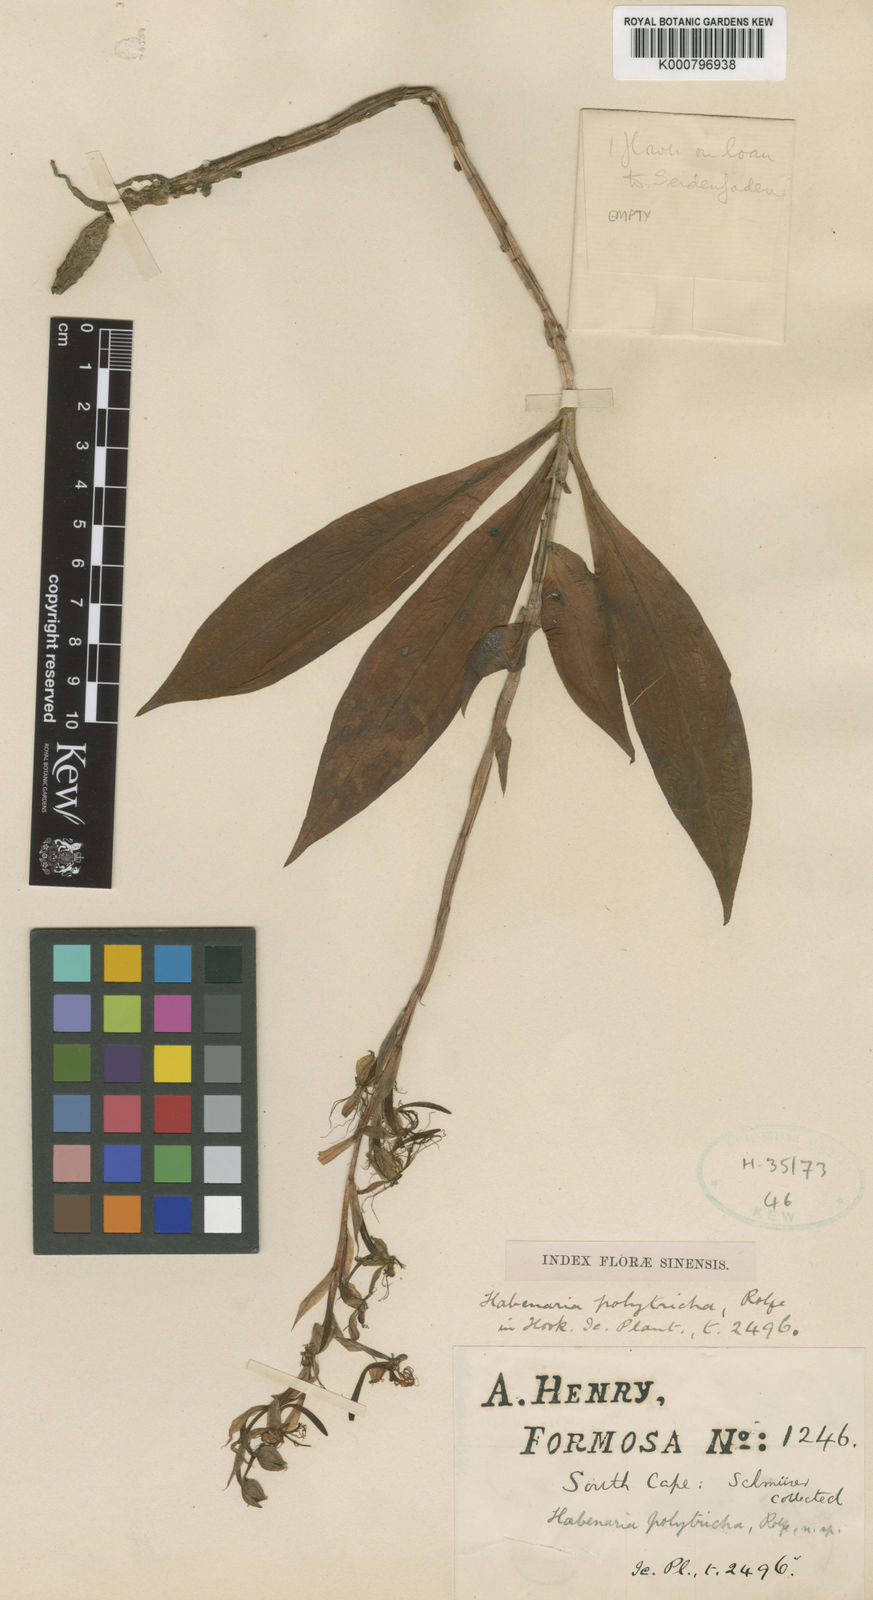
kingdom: Plantae
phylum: Tracheophyta
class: Liliopsida
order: Asparagales
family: Orchidaceae
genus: Habenaria
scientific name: Habenaria polytricha
